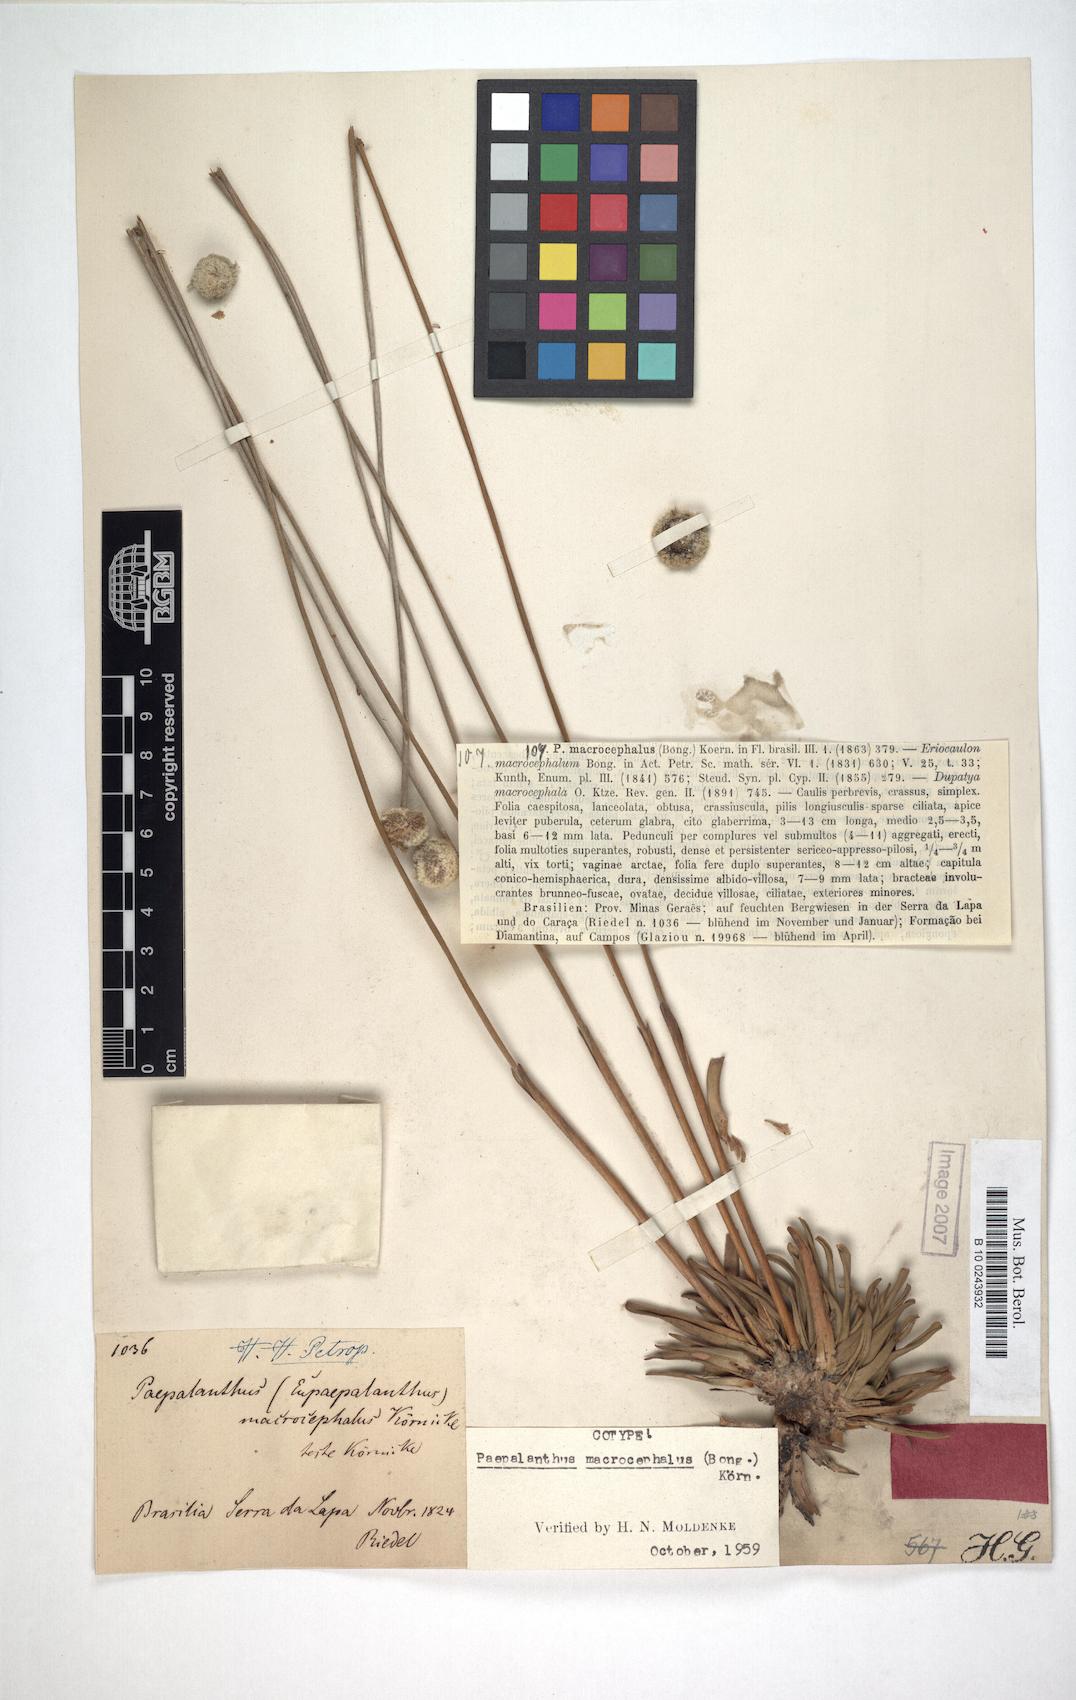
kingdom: Plantae
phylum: Tracheophyta
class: Liliopsida
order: Poales
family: Eriocaulaceae
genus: Paepalanthus
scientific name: Paepalanthus macrocephalus
